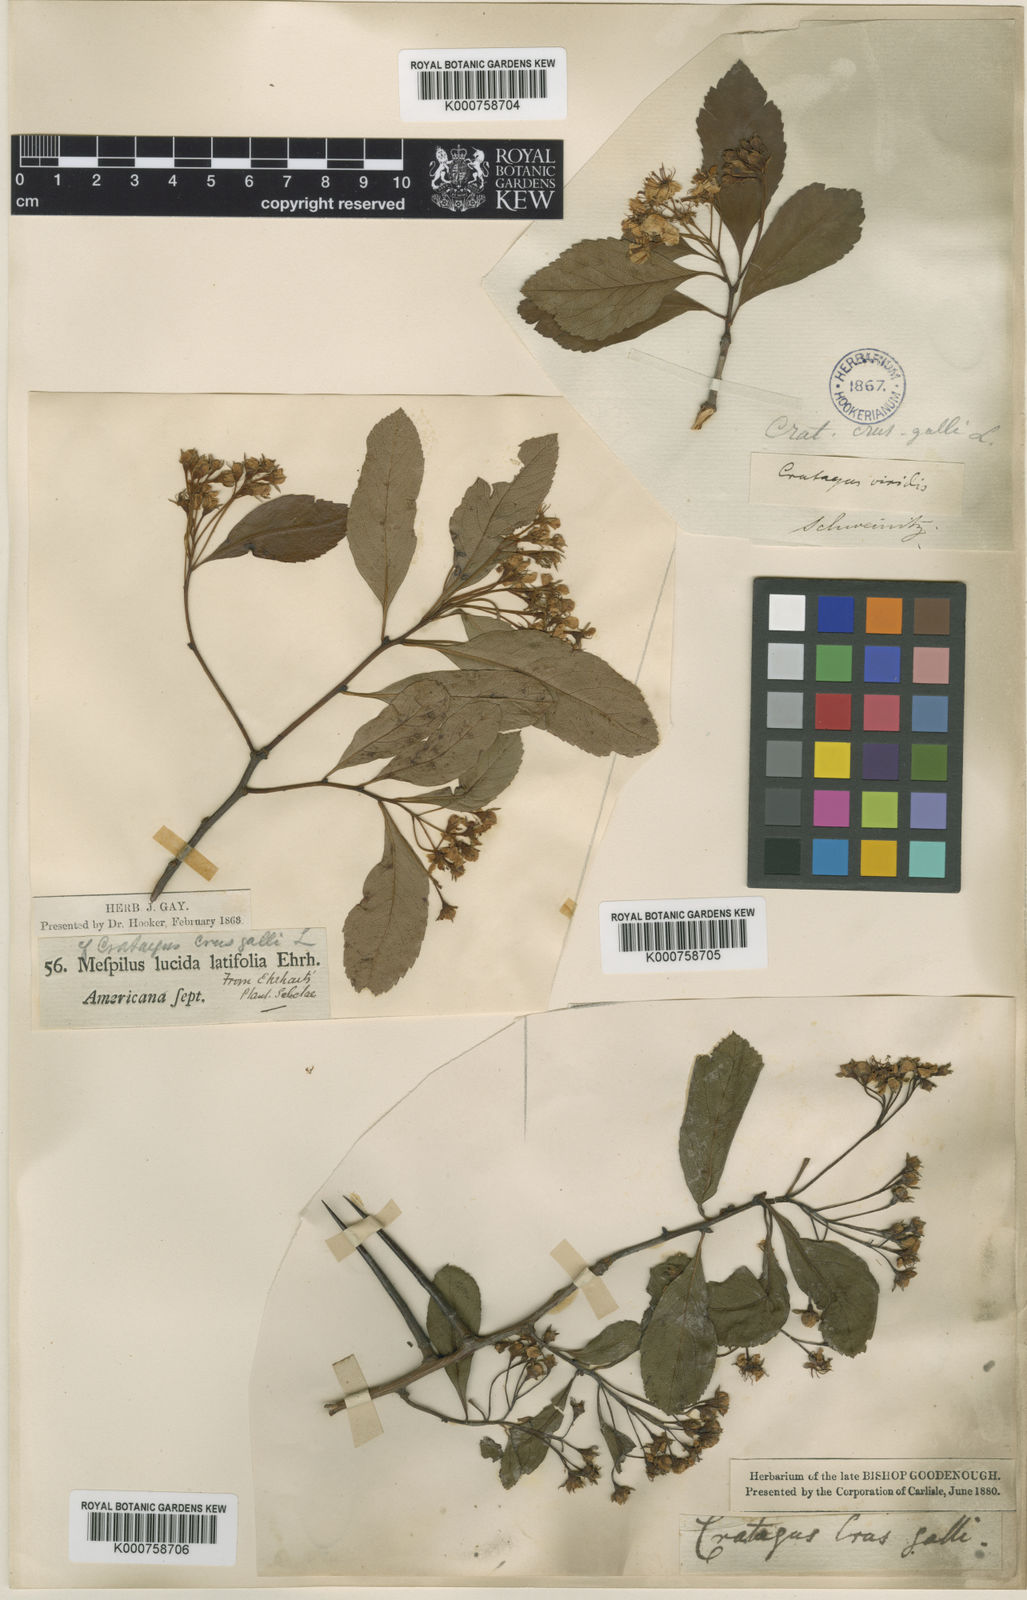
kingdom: Plantae
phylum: Tracheophyta
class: Magnoliopsida
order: Rosales
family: Rosaceae
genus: Crataegus
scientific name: Crataegus crus-galli
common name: Cockspurthorn
